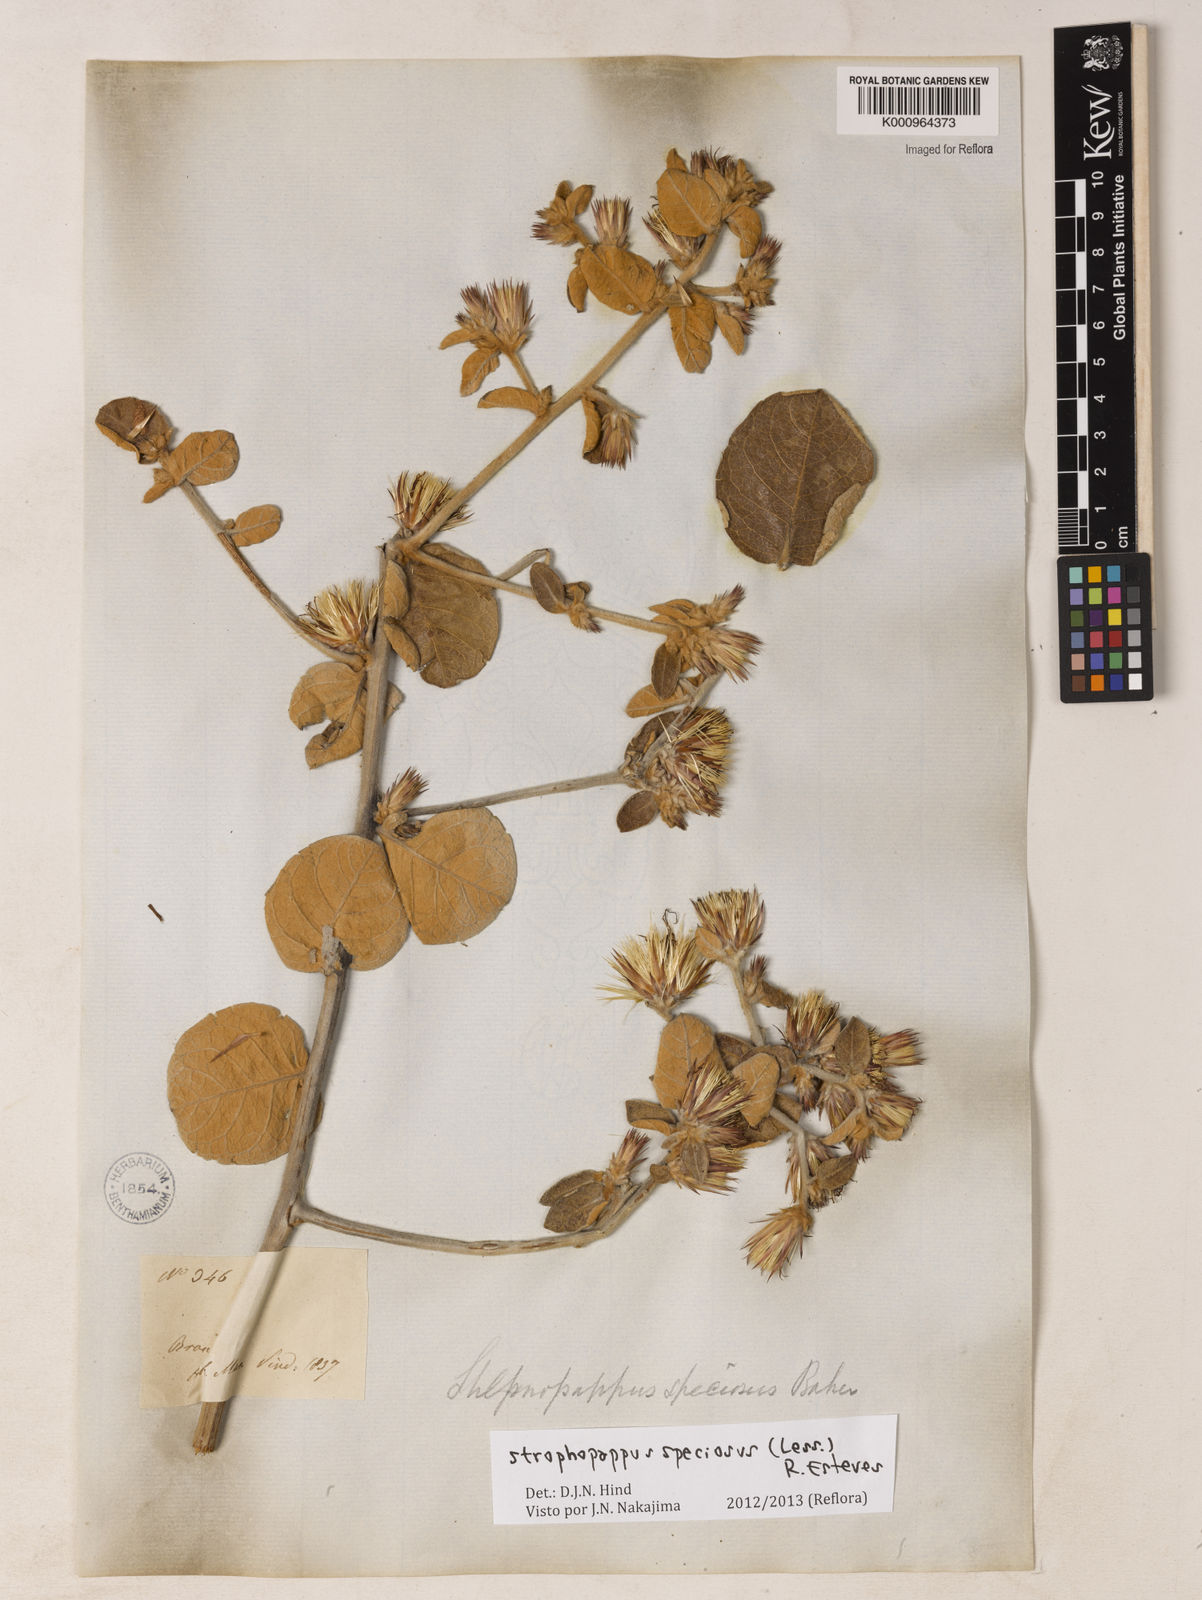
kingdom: Plantae
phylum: Tracheophyta
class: Magnoliopsida
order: Asterales
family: Asteraceae
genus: Stilpnopappus
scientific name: Stilpnopappus speciosus
